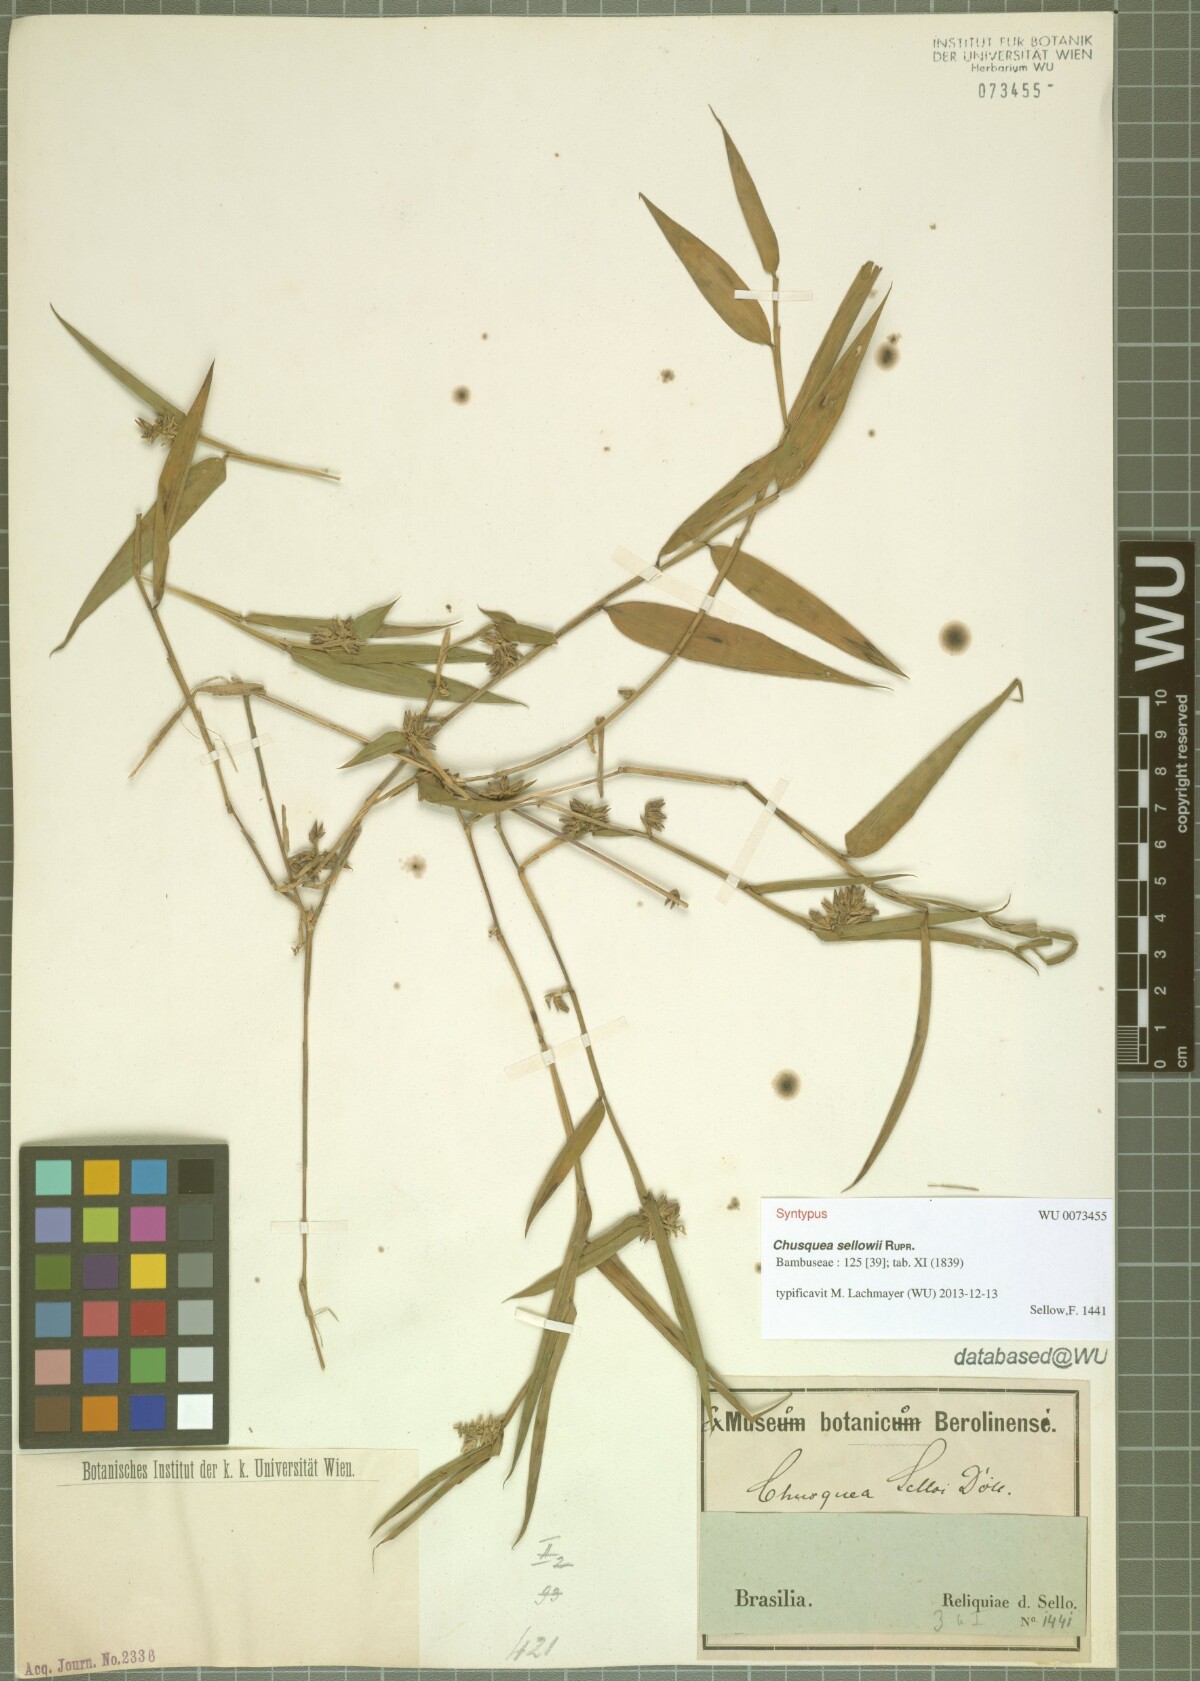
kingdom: Plantae
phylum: Tracheophyta
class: Liliopsida
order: Poales
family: Poaceae
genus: Chusquea
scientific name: Chusquea sellowii
